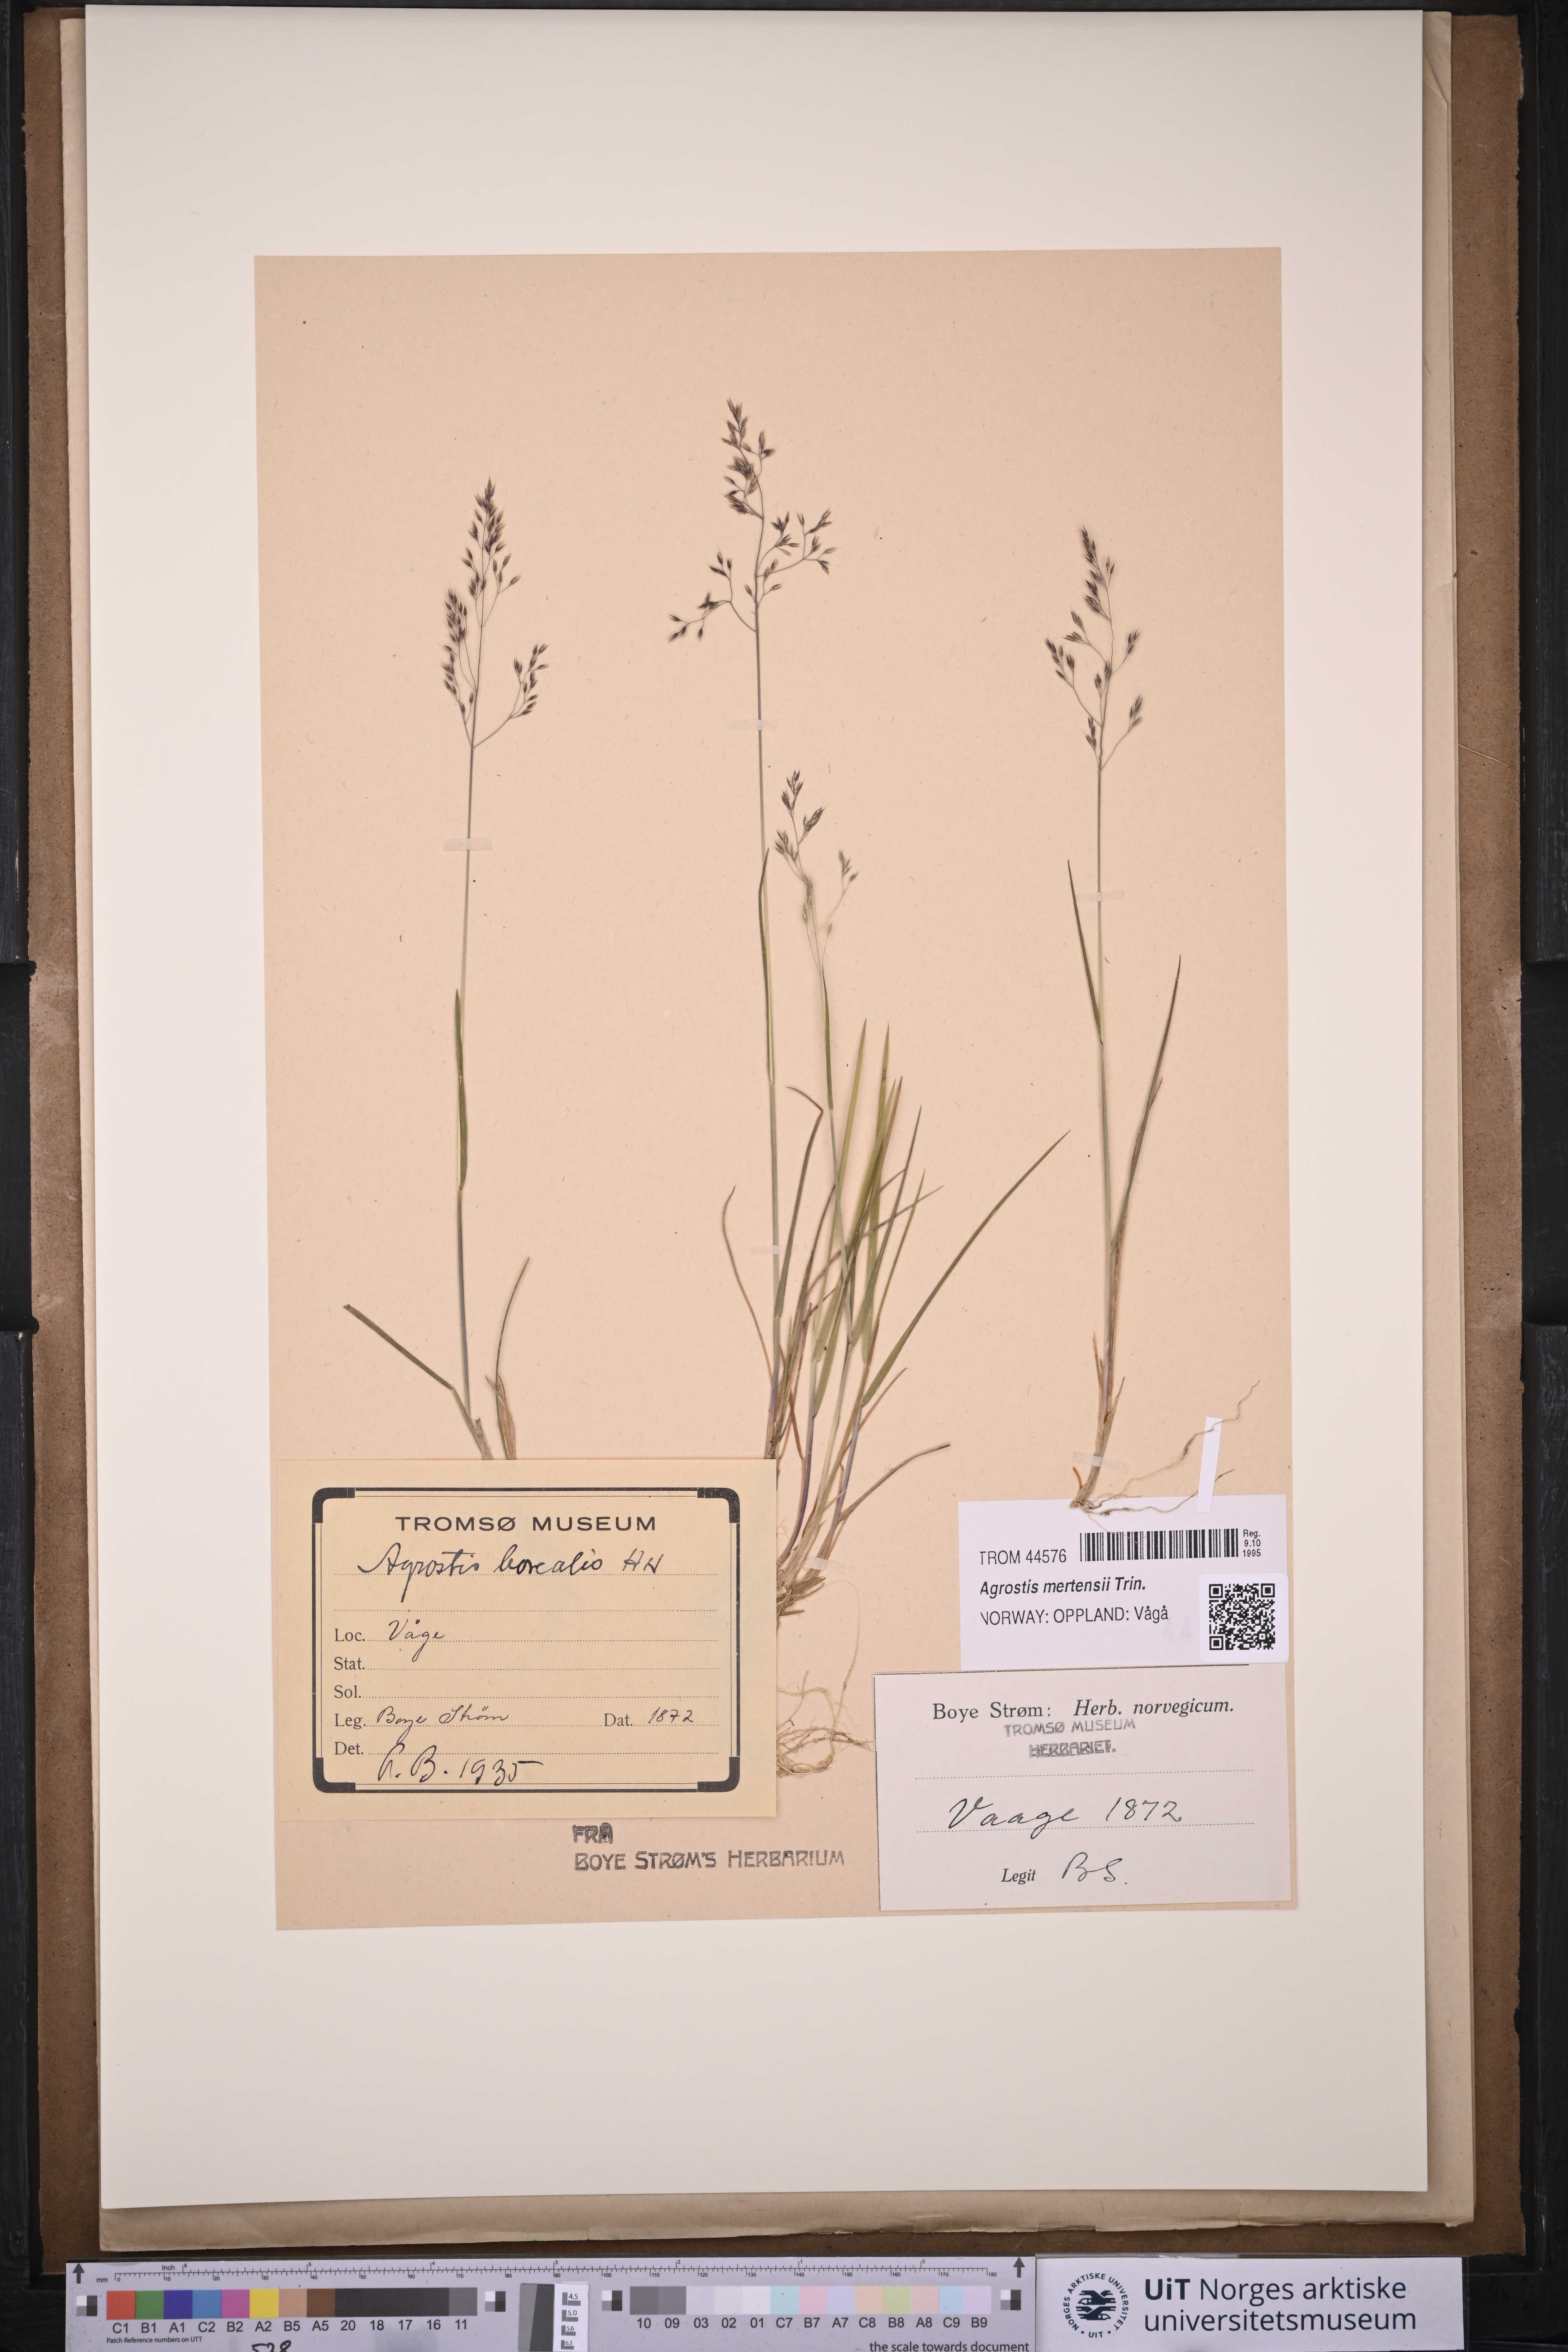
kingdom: Plantae
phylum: Tracheophyta
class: Liliopsida
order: Poales
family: Poaceae
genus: Agrostis
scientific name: Agrostis mertensii
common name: Northern bent
